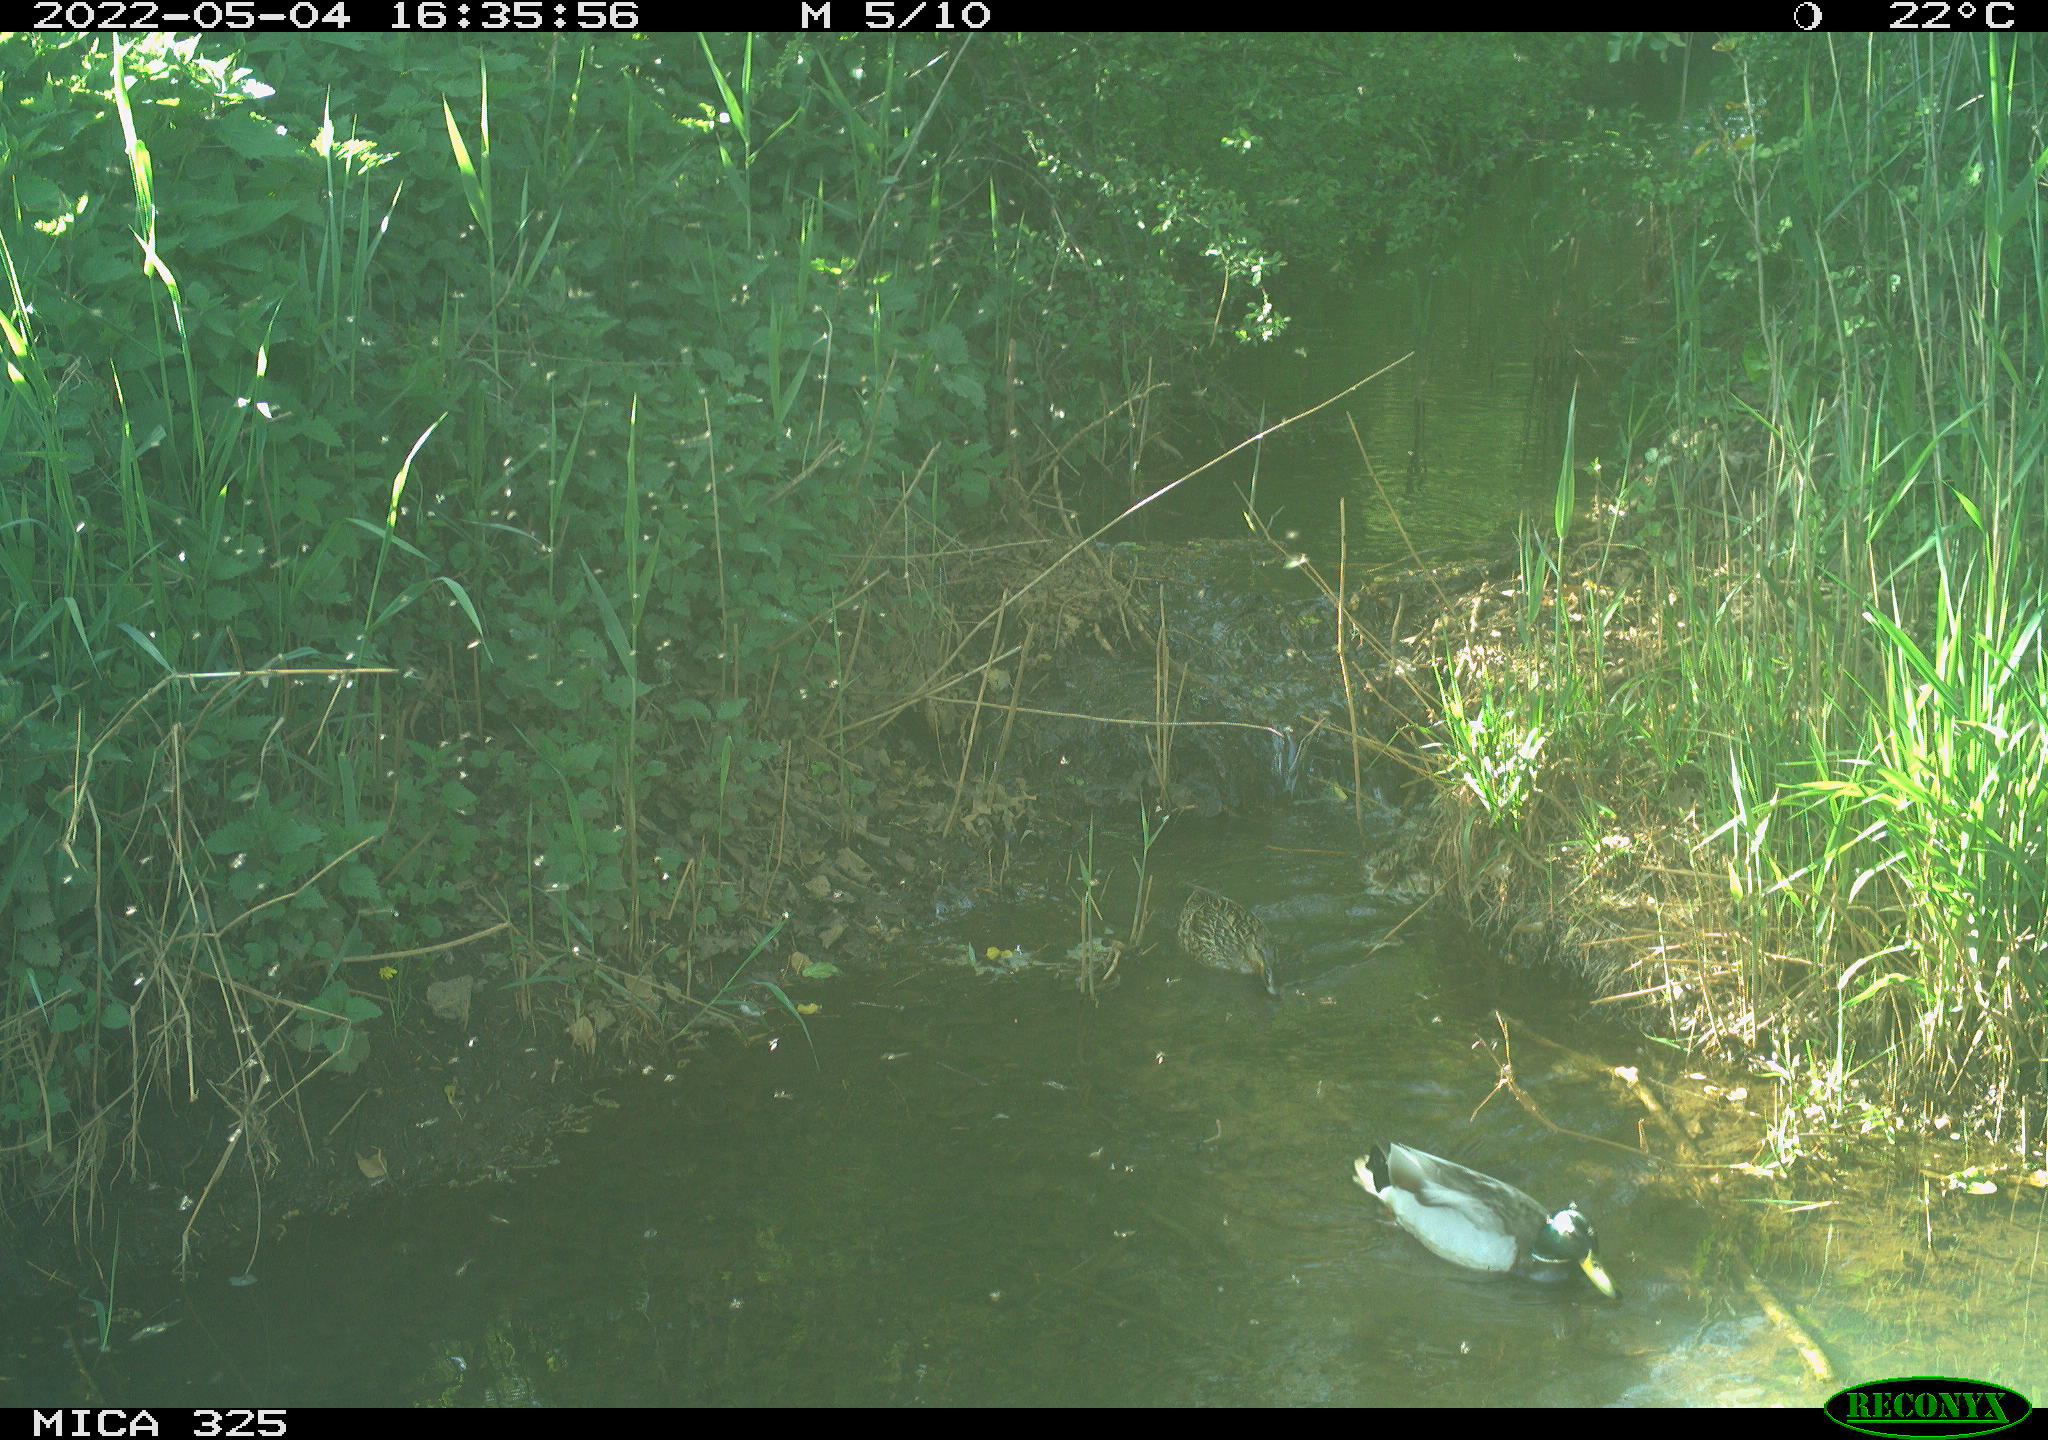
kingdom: Animalia
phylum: Chordata
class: Aves
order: Anseriformes
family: Anatidae
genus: Anas
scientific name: Anas platyrhynchos
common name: Mallard
